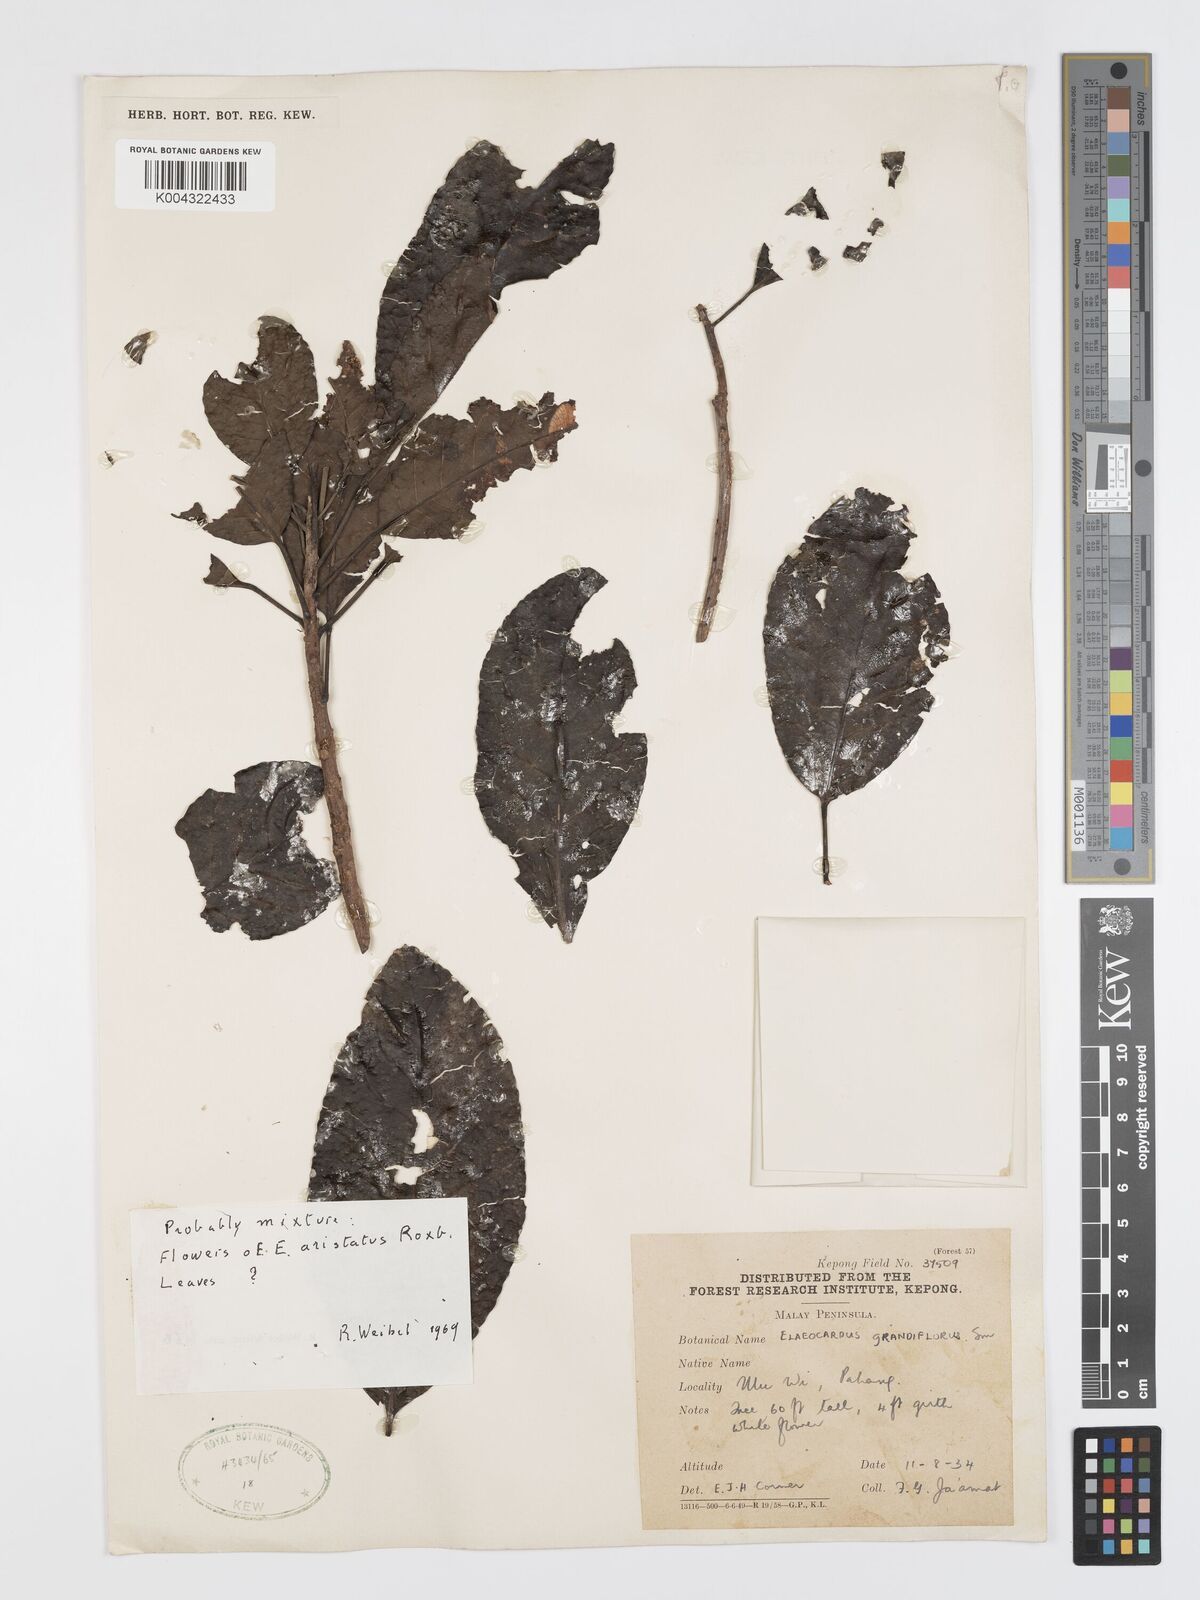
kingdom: Plantae
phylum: Tracheophyta
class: Magnoliopsida
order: Oxalidales
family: Elaeocarpaceae
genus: Elaeocarpus
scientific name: Elaeocarpus aristatus
